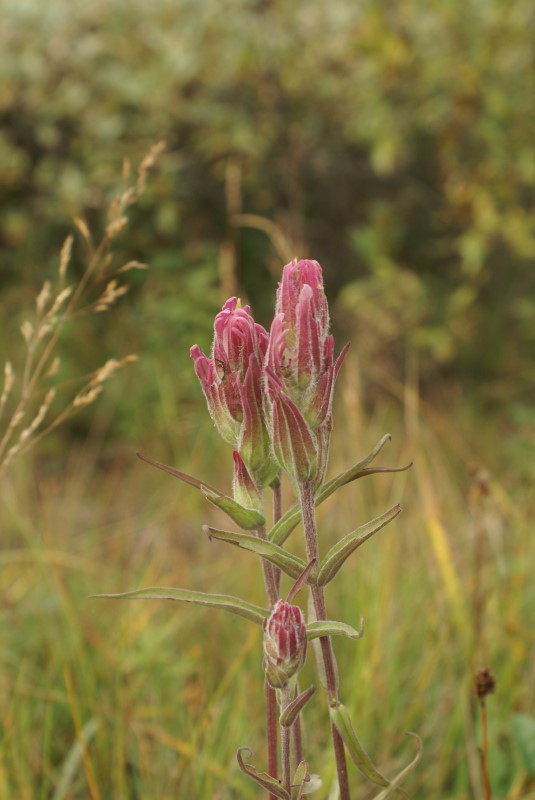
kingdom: Plantae
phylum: Tracheophyta
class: Magnoliopsida
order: Gentianales
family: Gentianaceae
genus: Gentiana
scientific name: Gentiana algida
